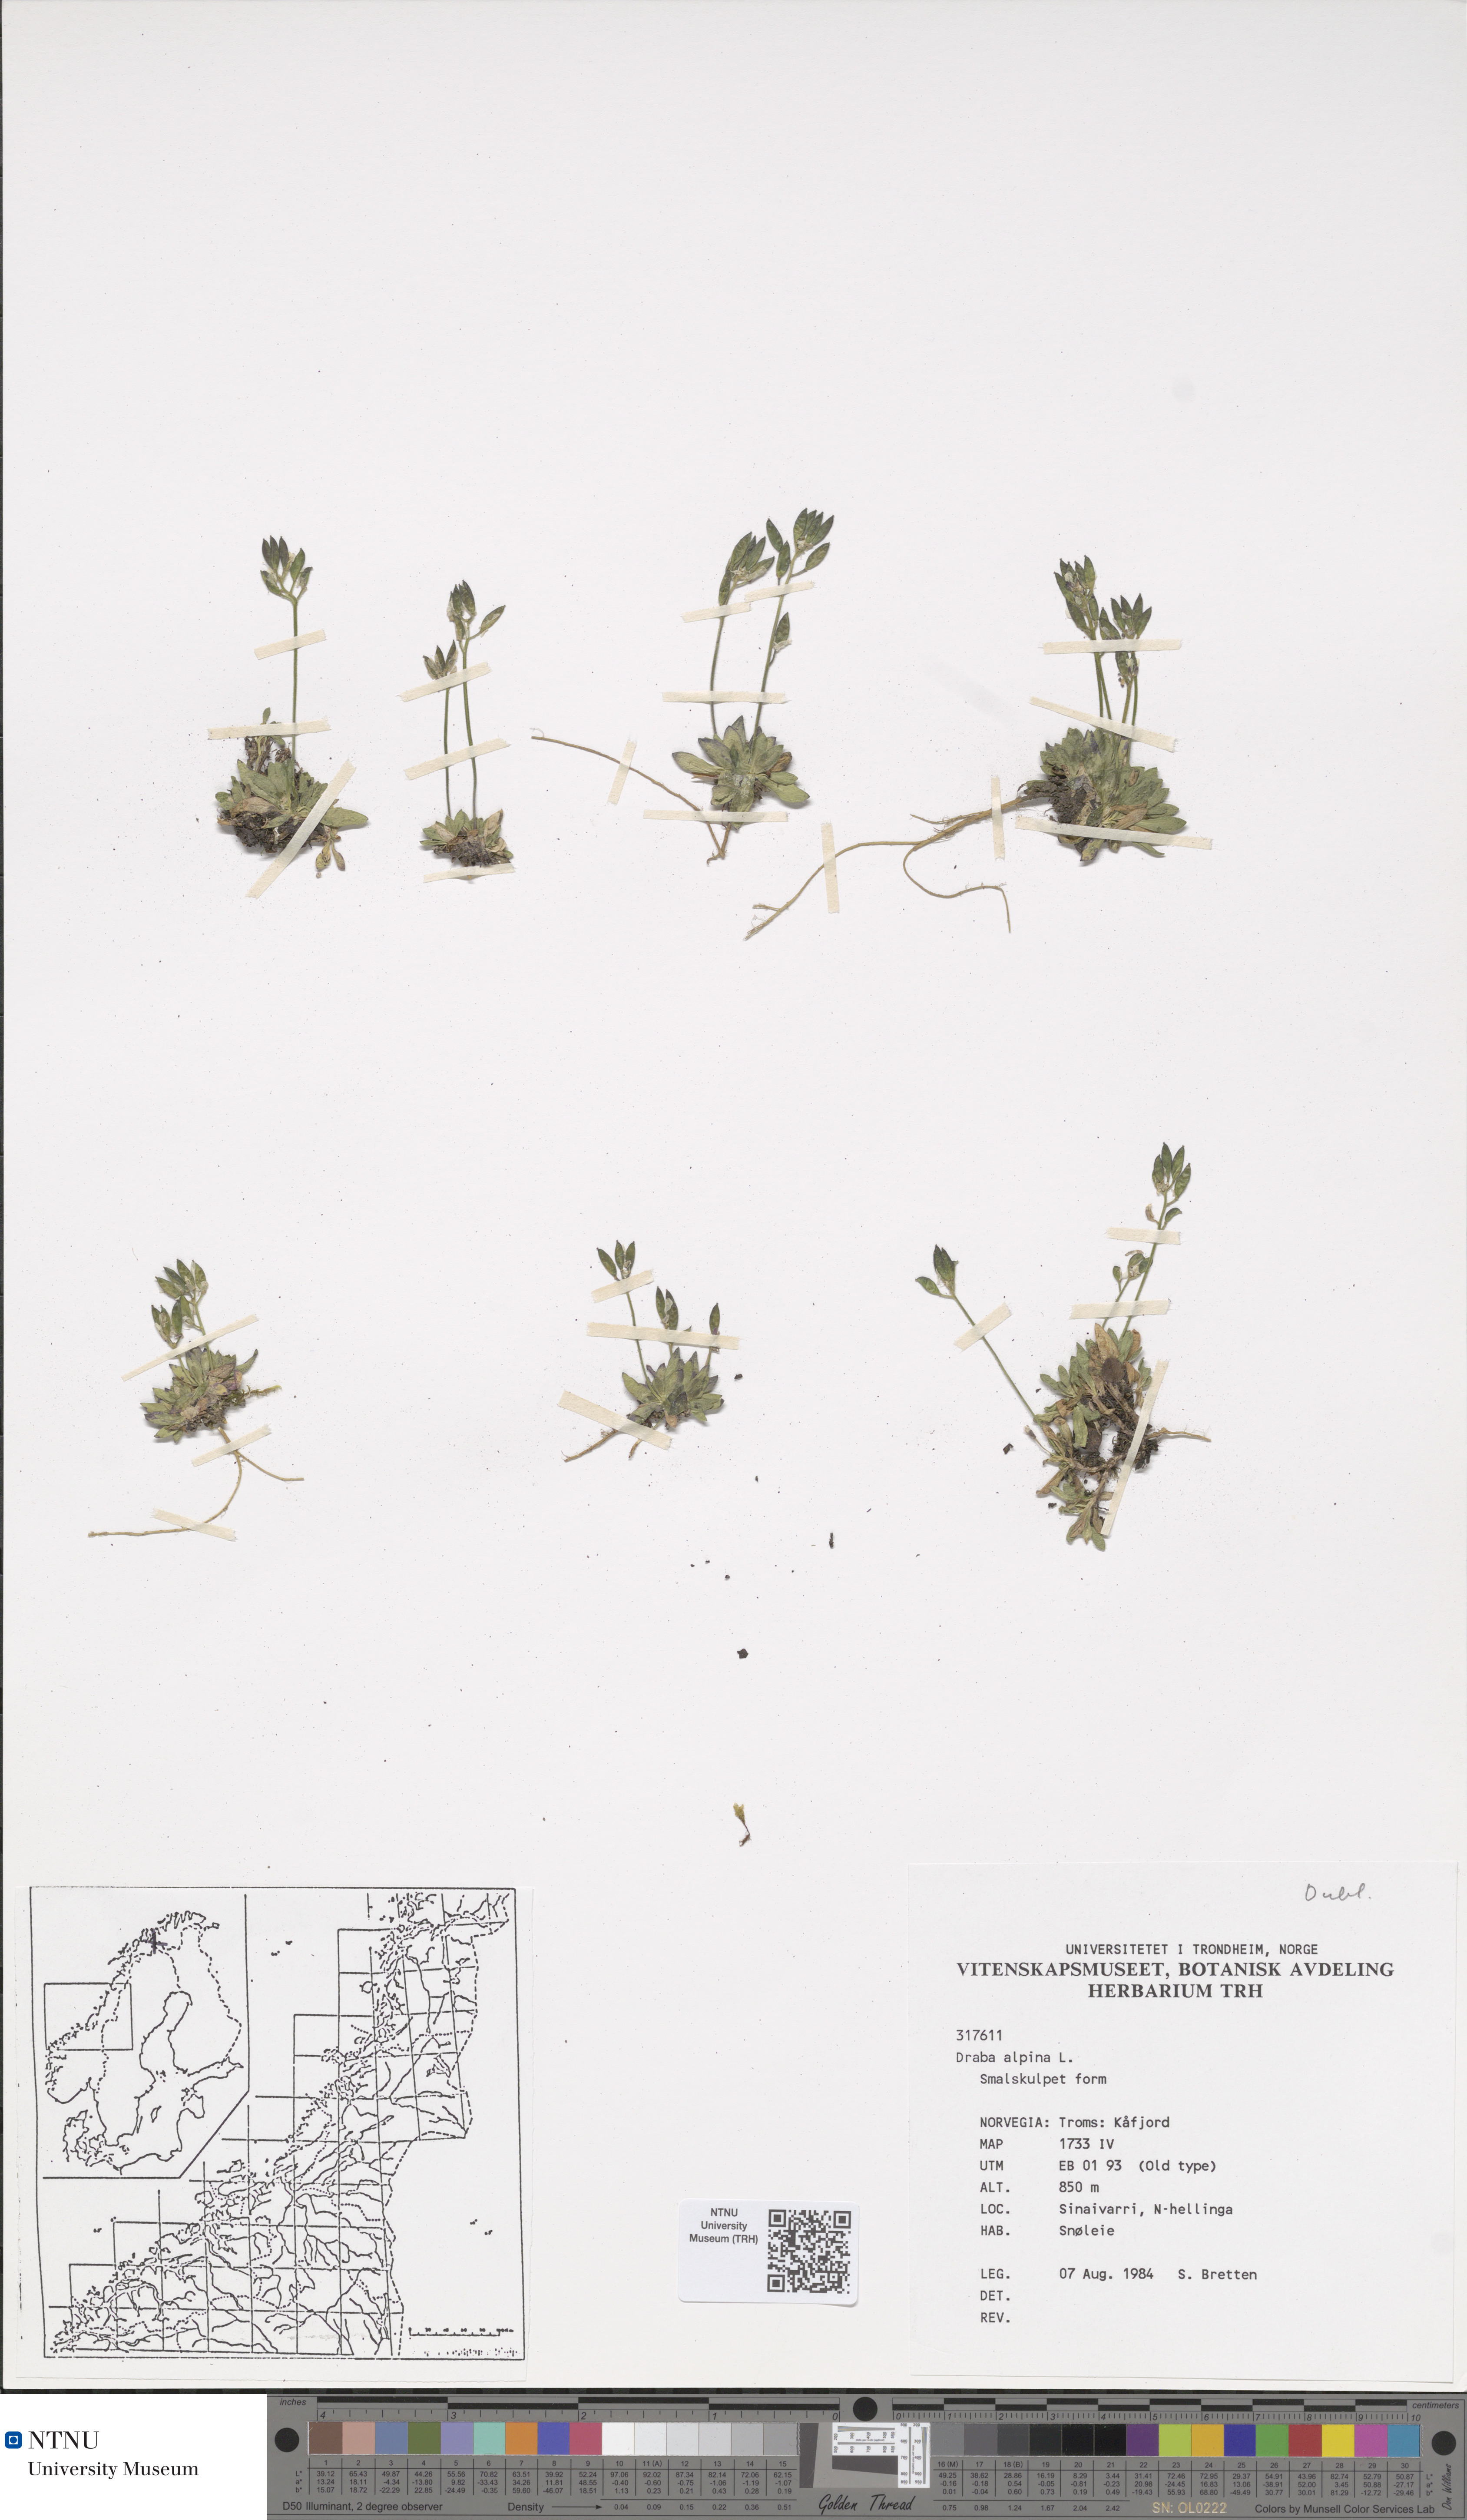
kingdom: Plantae
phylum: Tracheophyta
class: Magnoliopsida
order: Brassicales
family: Brassicaceae
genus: Draba
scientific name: Draba alpina
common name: Alpine draba
